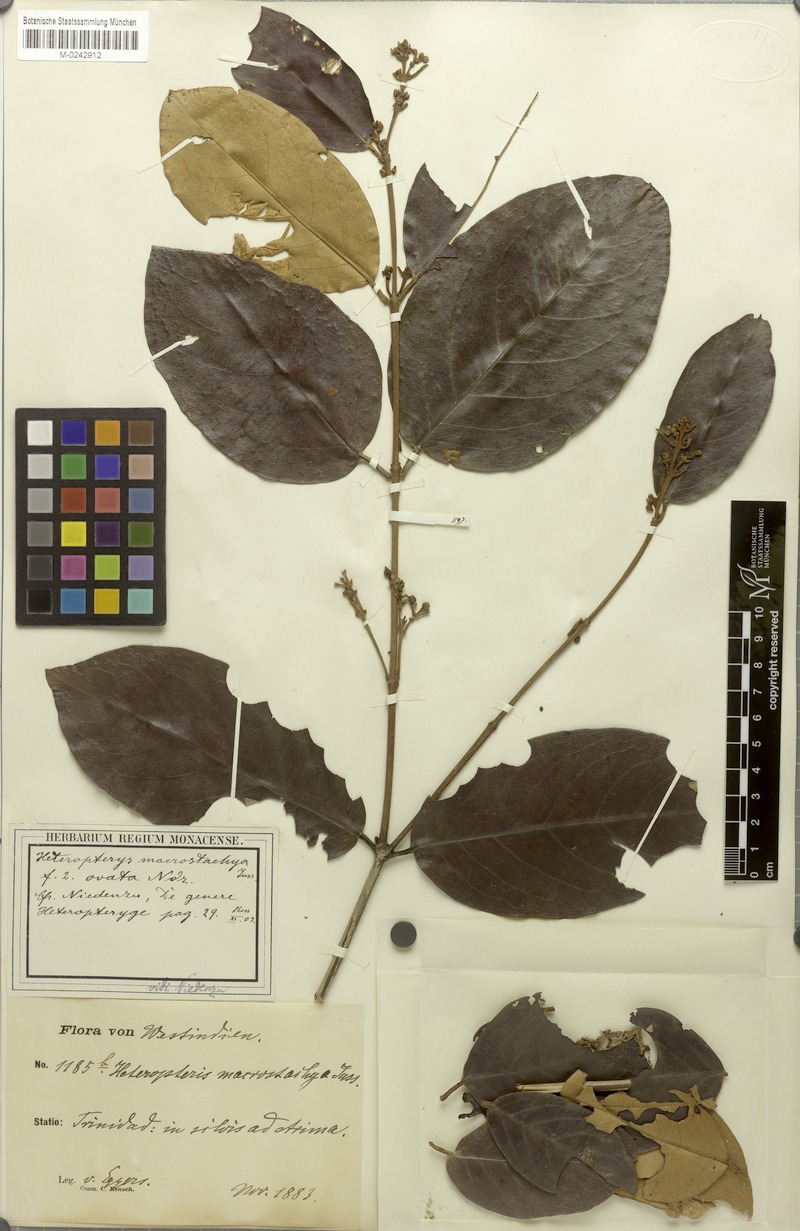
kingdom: Plantae
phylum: Tracheophyta
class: Magnoliopsida
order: Malpighiales
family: Malpighiaceae
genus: Heteropterys
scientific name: Heteropterys macrostachya
